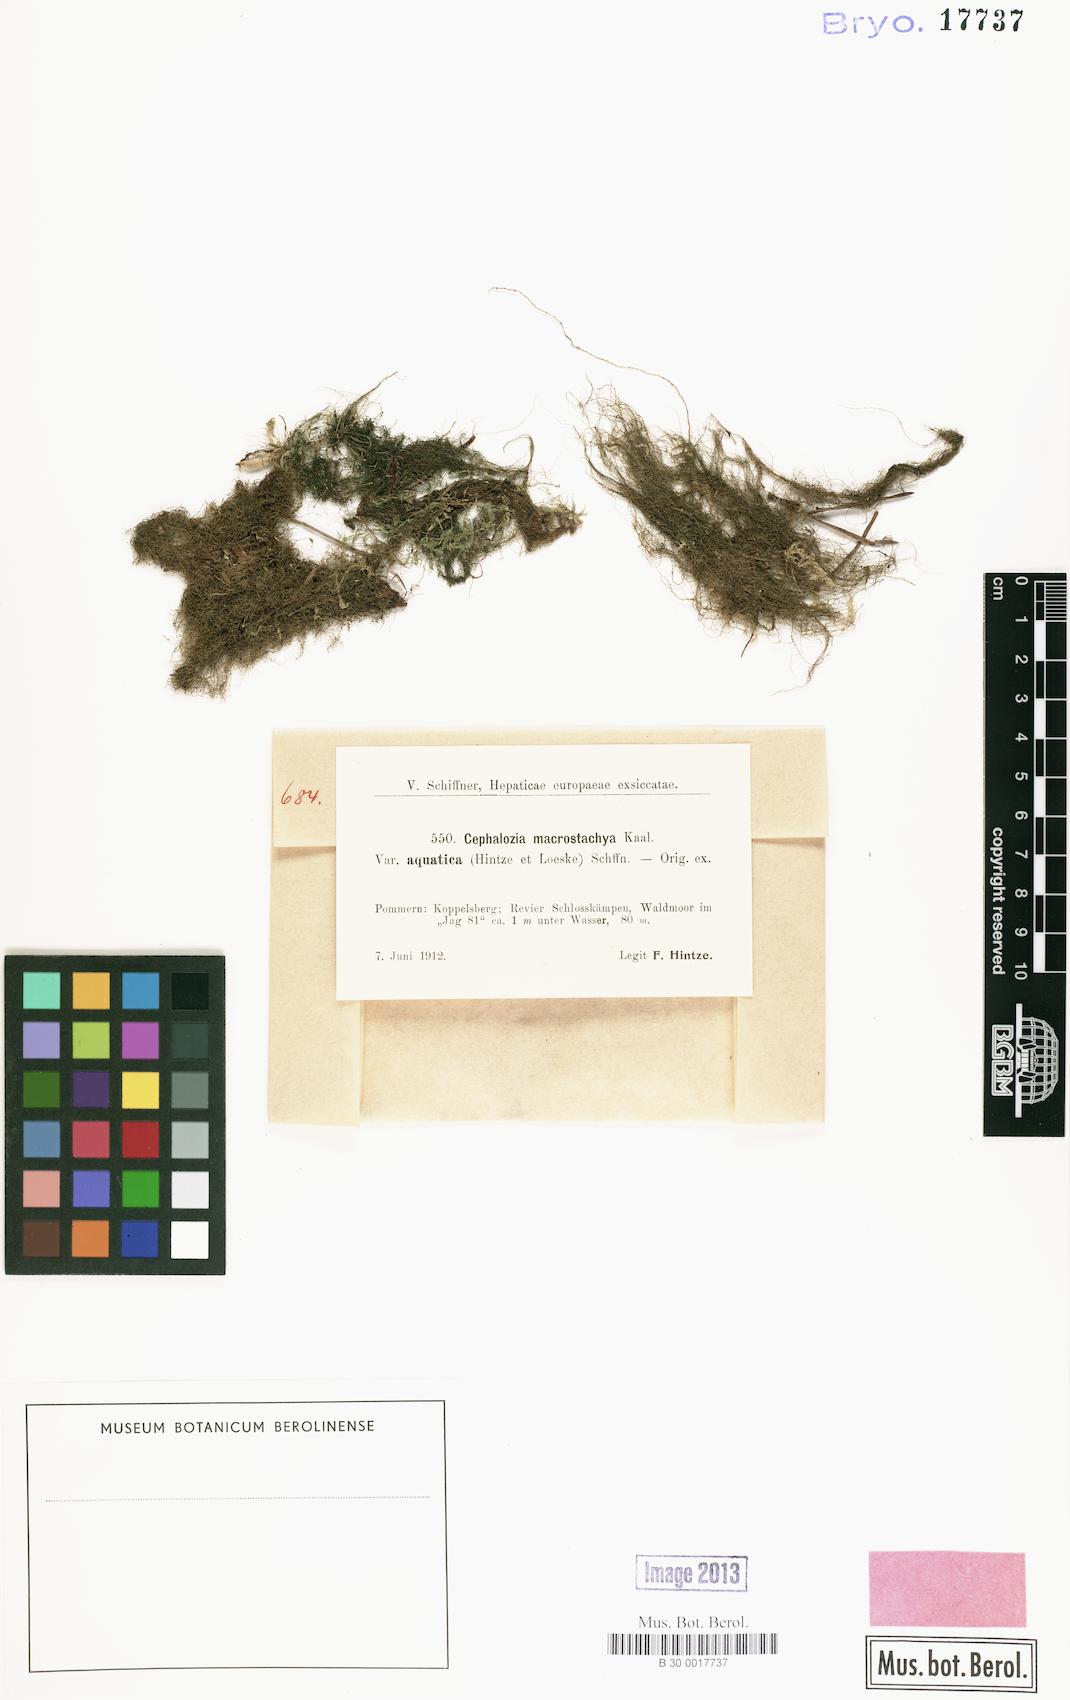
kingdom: Plantae
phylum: Marchantiophyta
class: Jungermanniopsida
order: Jungermanniales
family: Cephaloziaceae
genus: Fuscocephaloziopsis
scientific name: Fuscocephaloziopsis macrostachya
